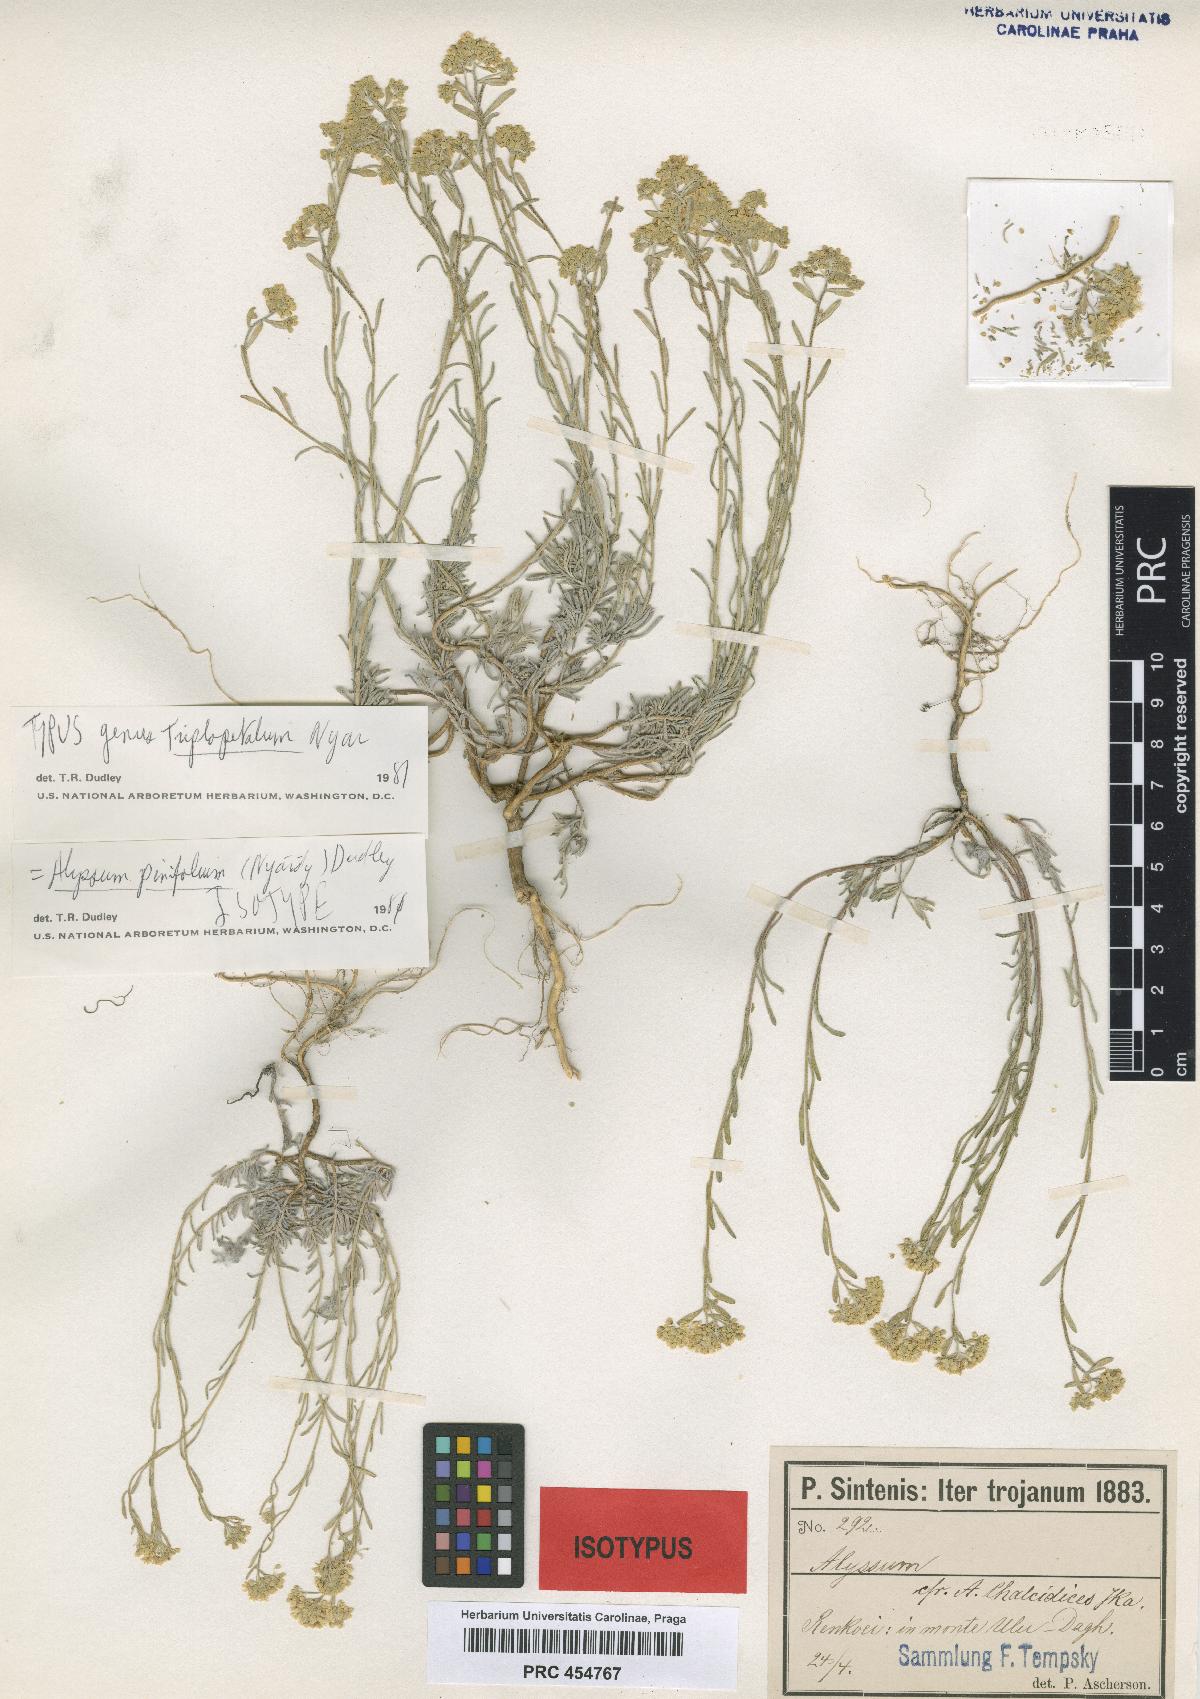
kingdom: Plantae
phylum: Tracheophyta
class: Magnoliopsida
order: Brassicales
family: Brassicaceae
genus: Odontarrhena
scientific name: Odontarrhena pinifolia
